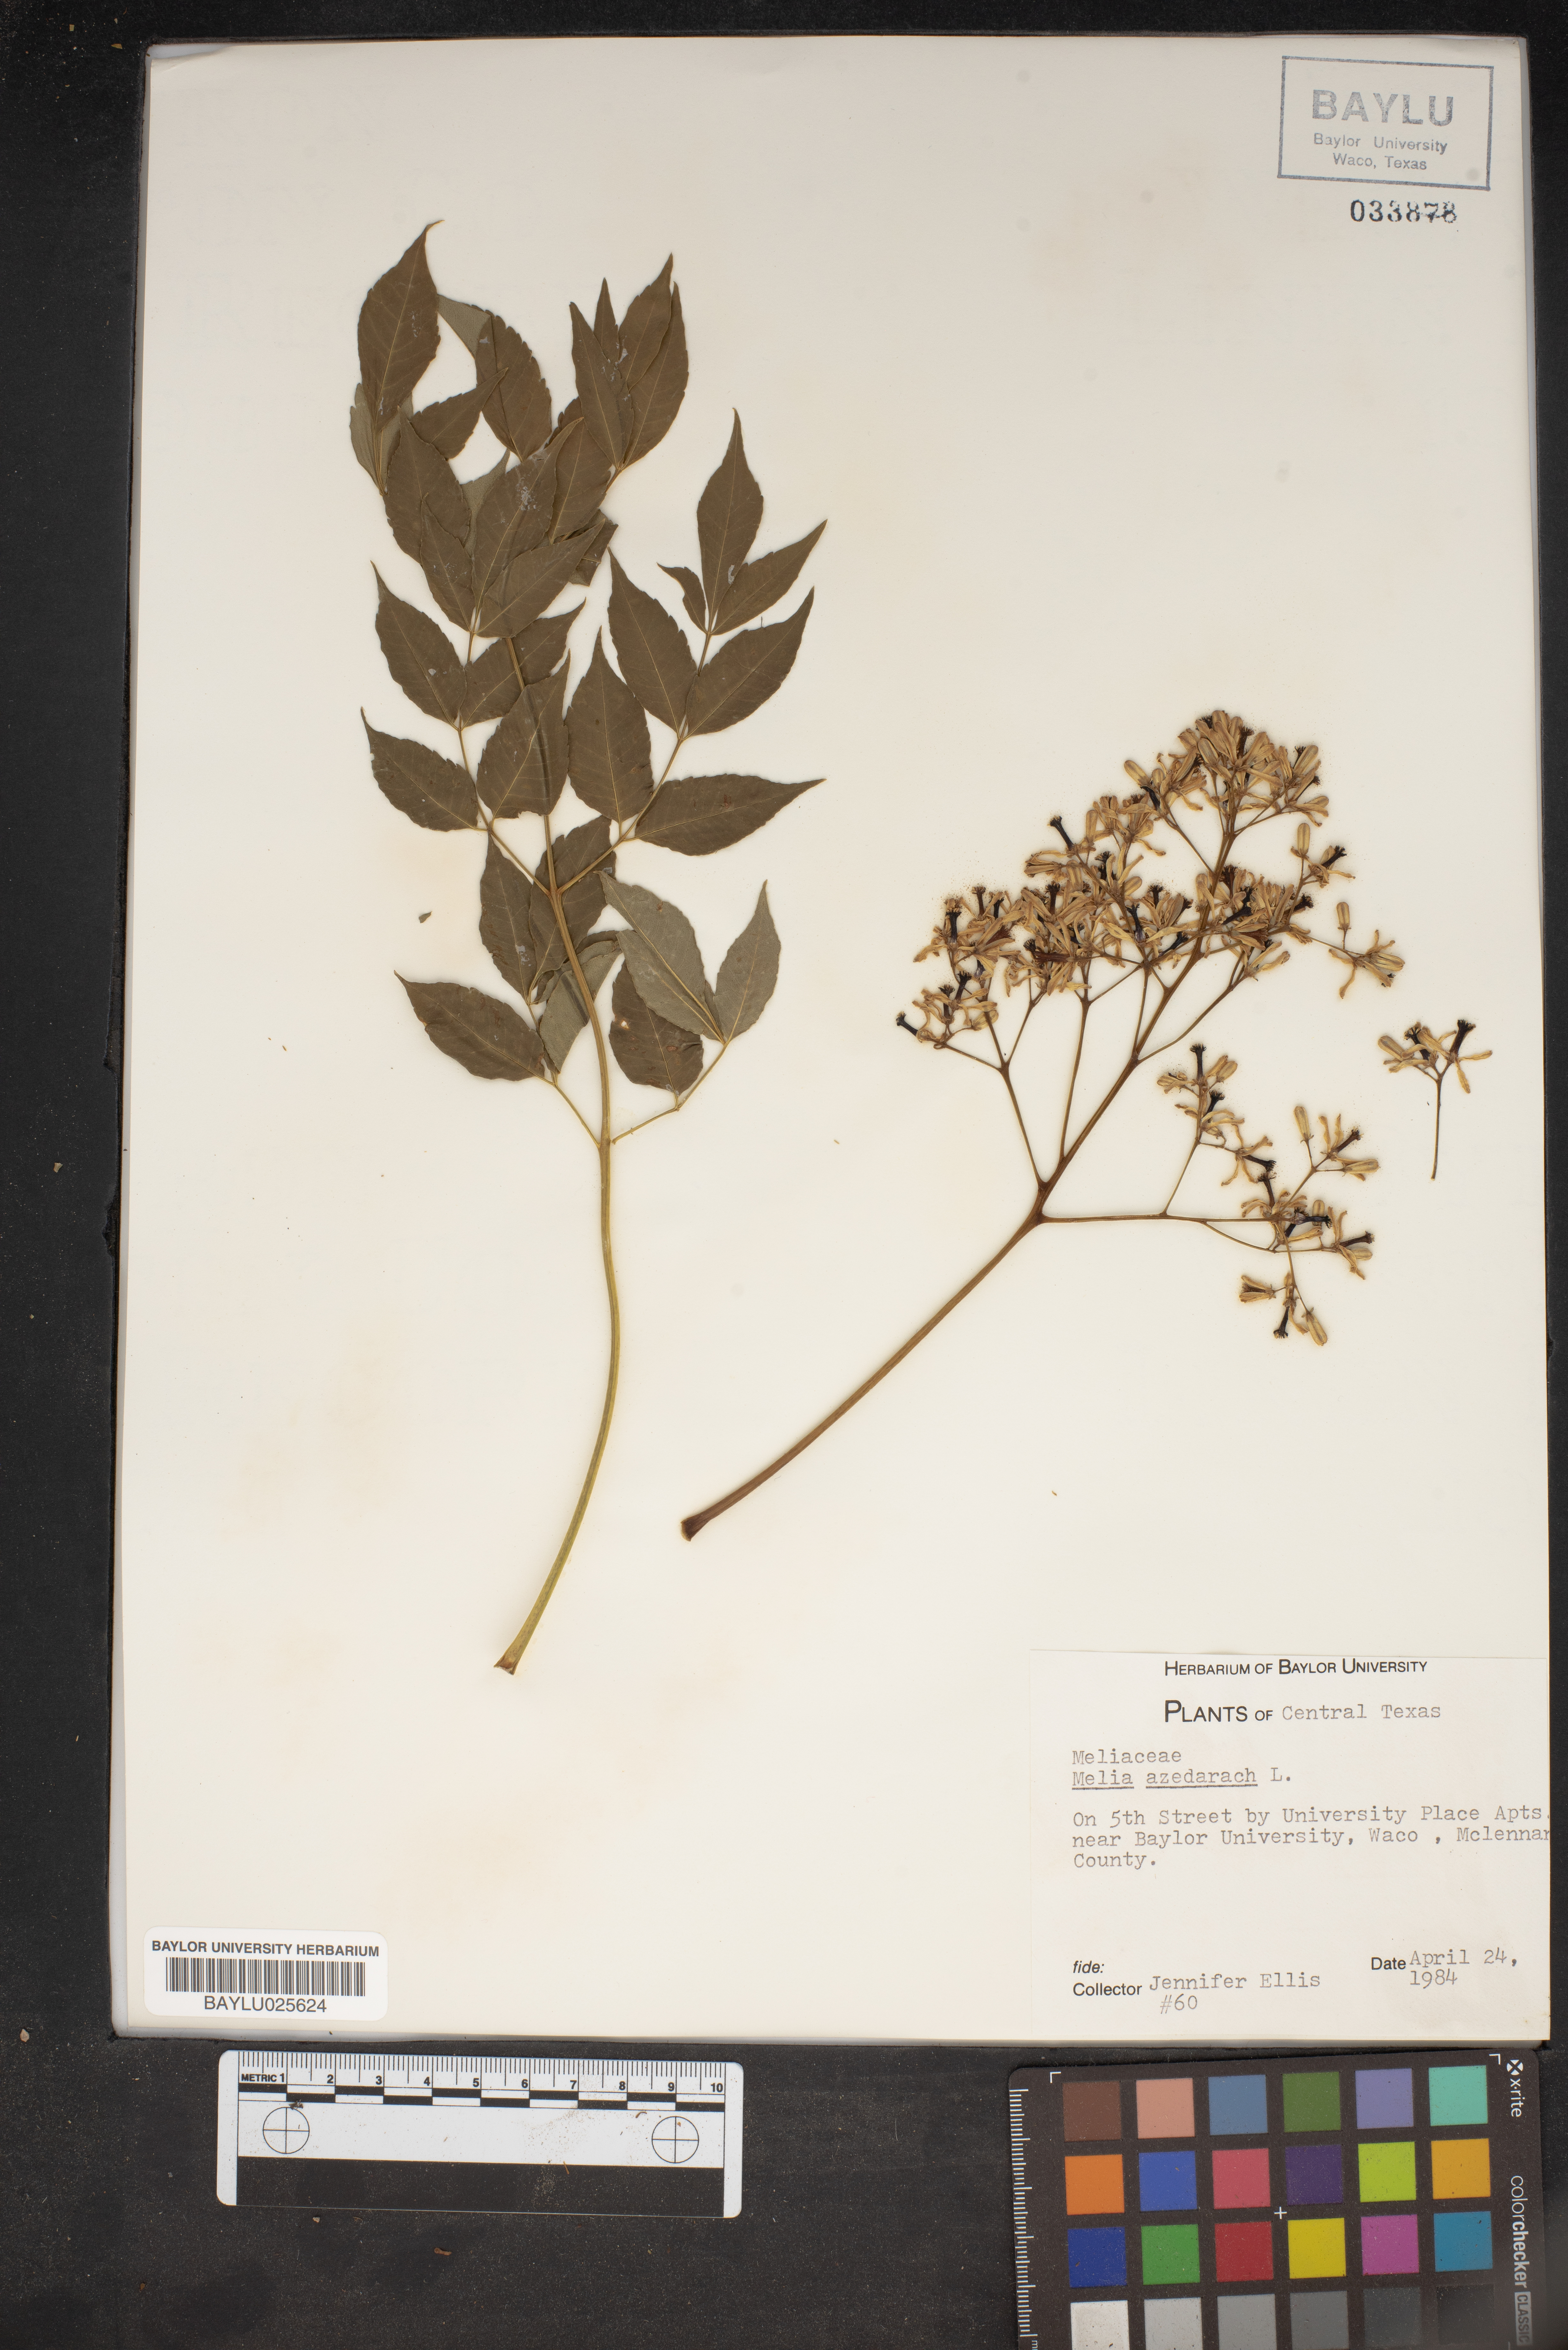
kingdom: Plantae
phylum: Tracheophyta
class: Magnoliopsida
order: Sapindales
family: Meliaceae
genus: Melia
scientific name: Melia azedarach
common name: Chinaberrytree
